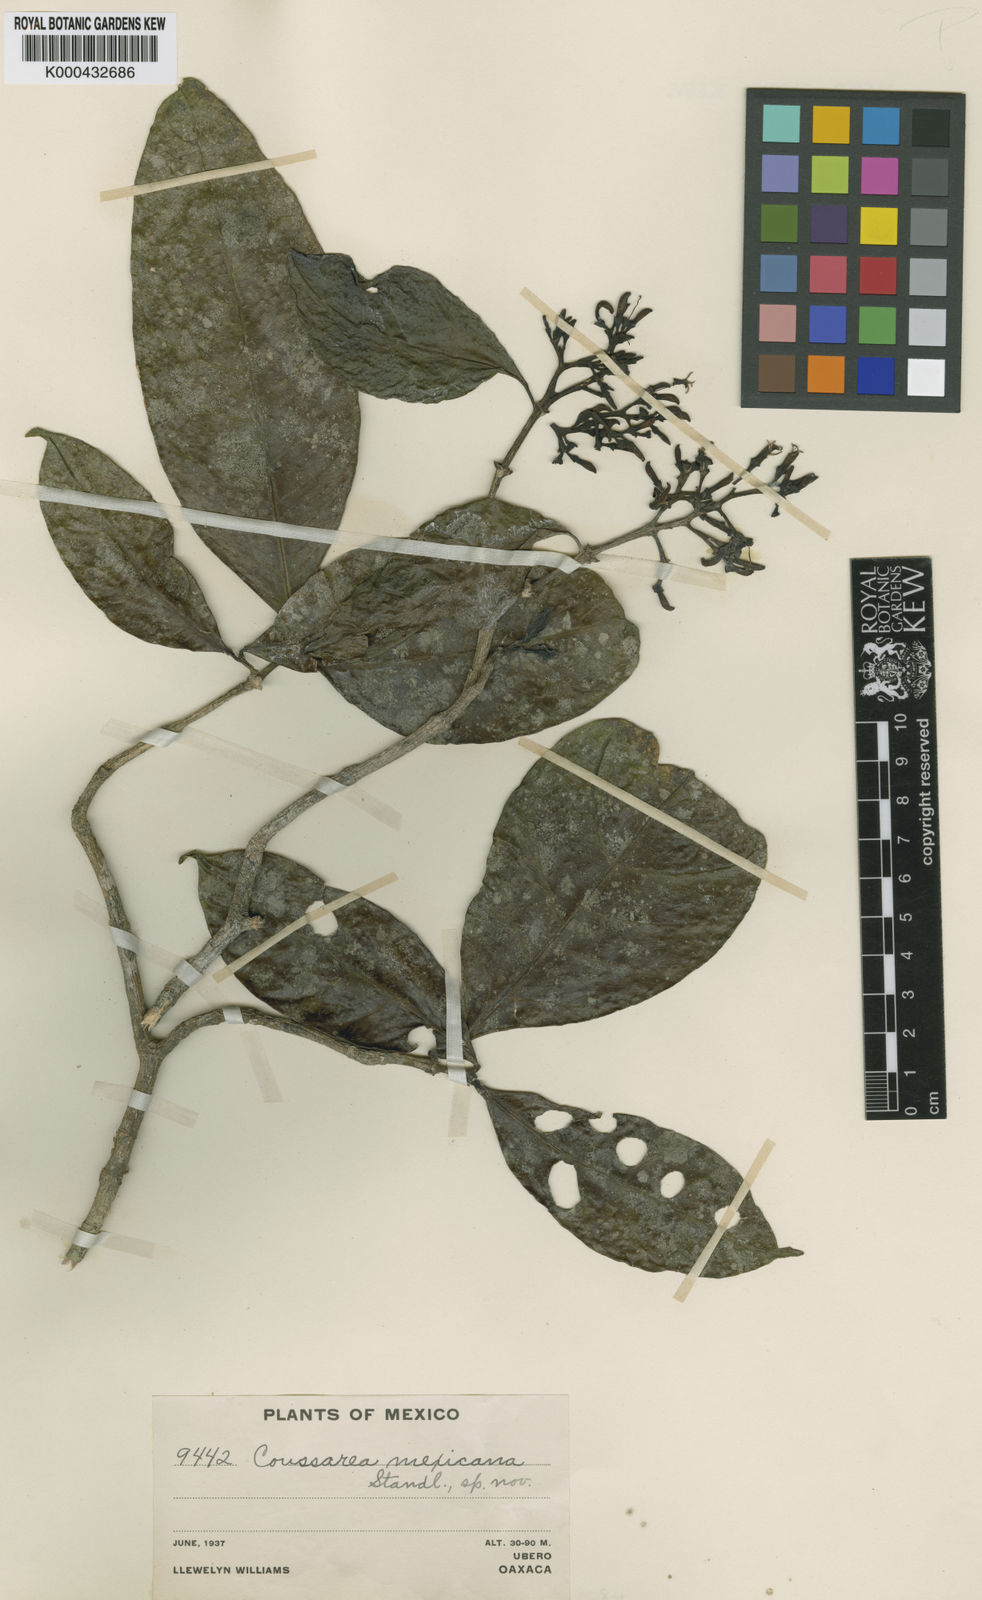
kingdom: Plantae
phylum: Tracheophyta
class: Magnoliopsida
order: Gentianales
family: Rubiaceae
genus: Coussarea
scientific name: Coussarea mexicana
